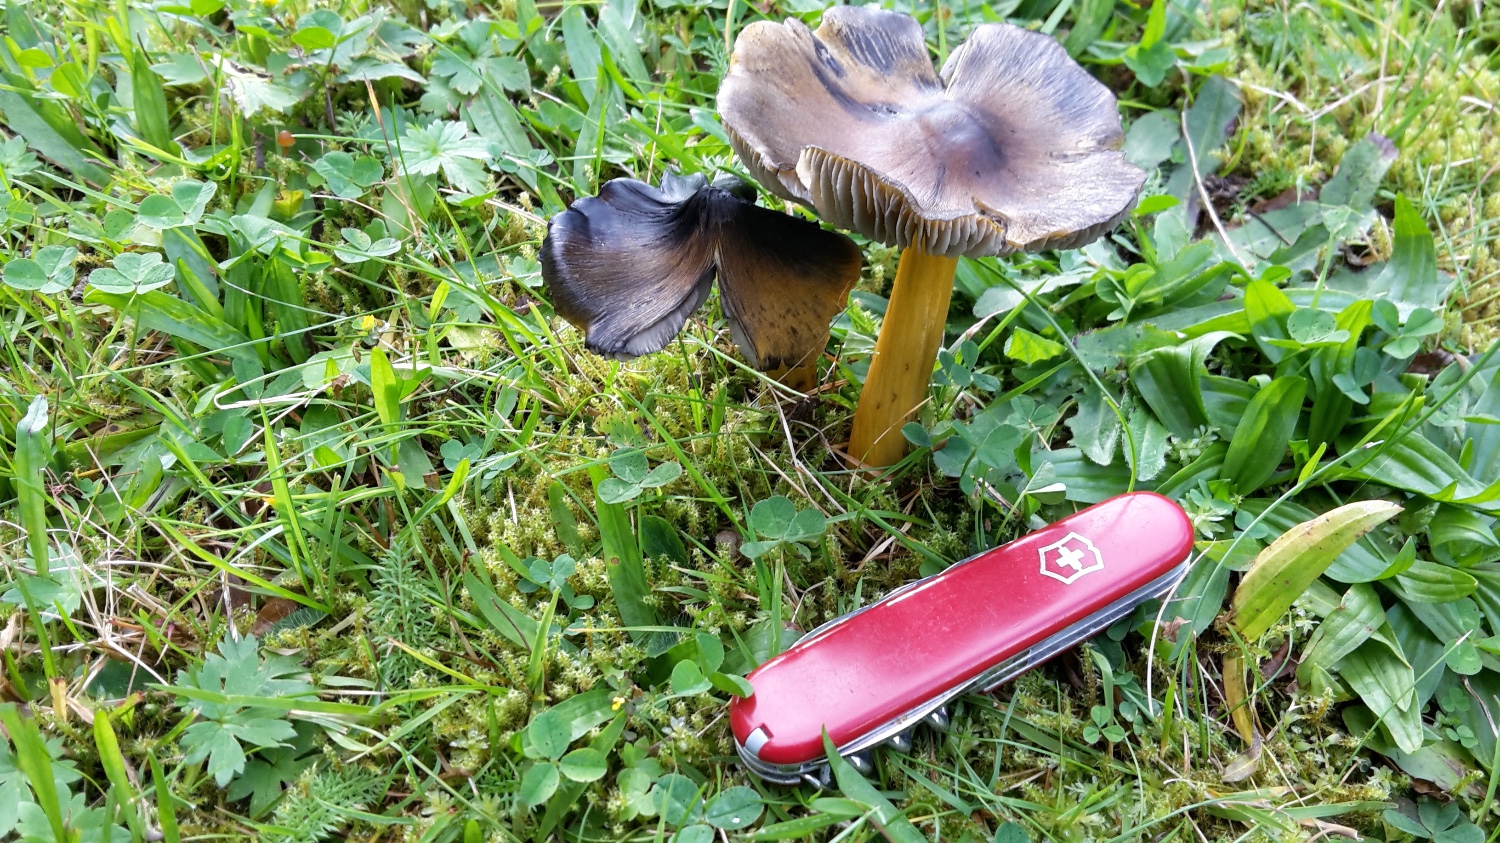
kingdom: Fungi
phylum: Basidiomycota
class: Agaricomycetes
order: Agaricales
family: Hygrophoraceae
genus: Hygrocybe
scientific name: Hygrocybe conica
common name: kegle-vokshat
